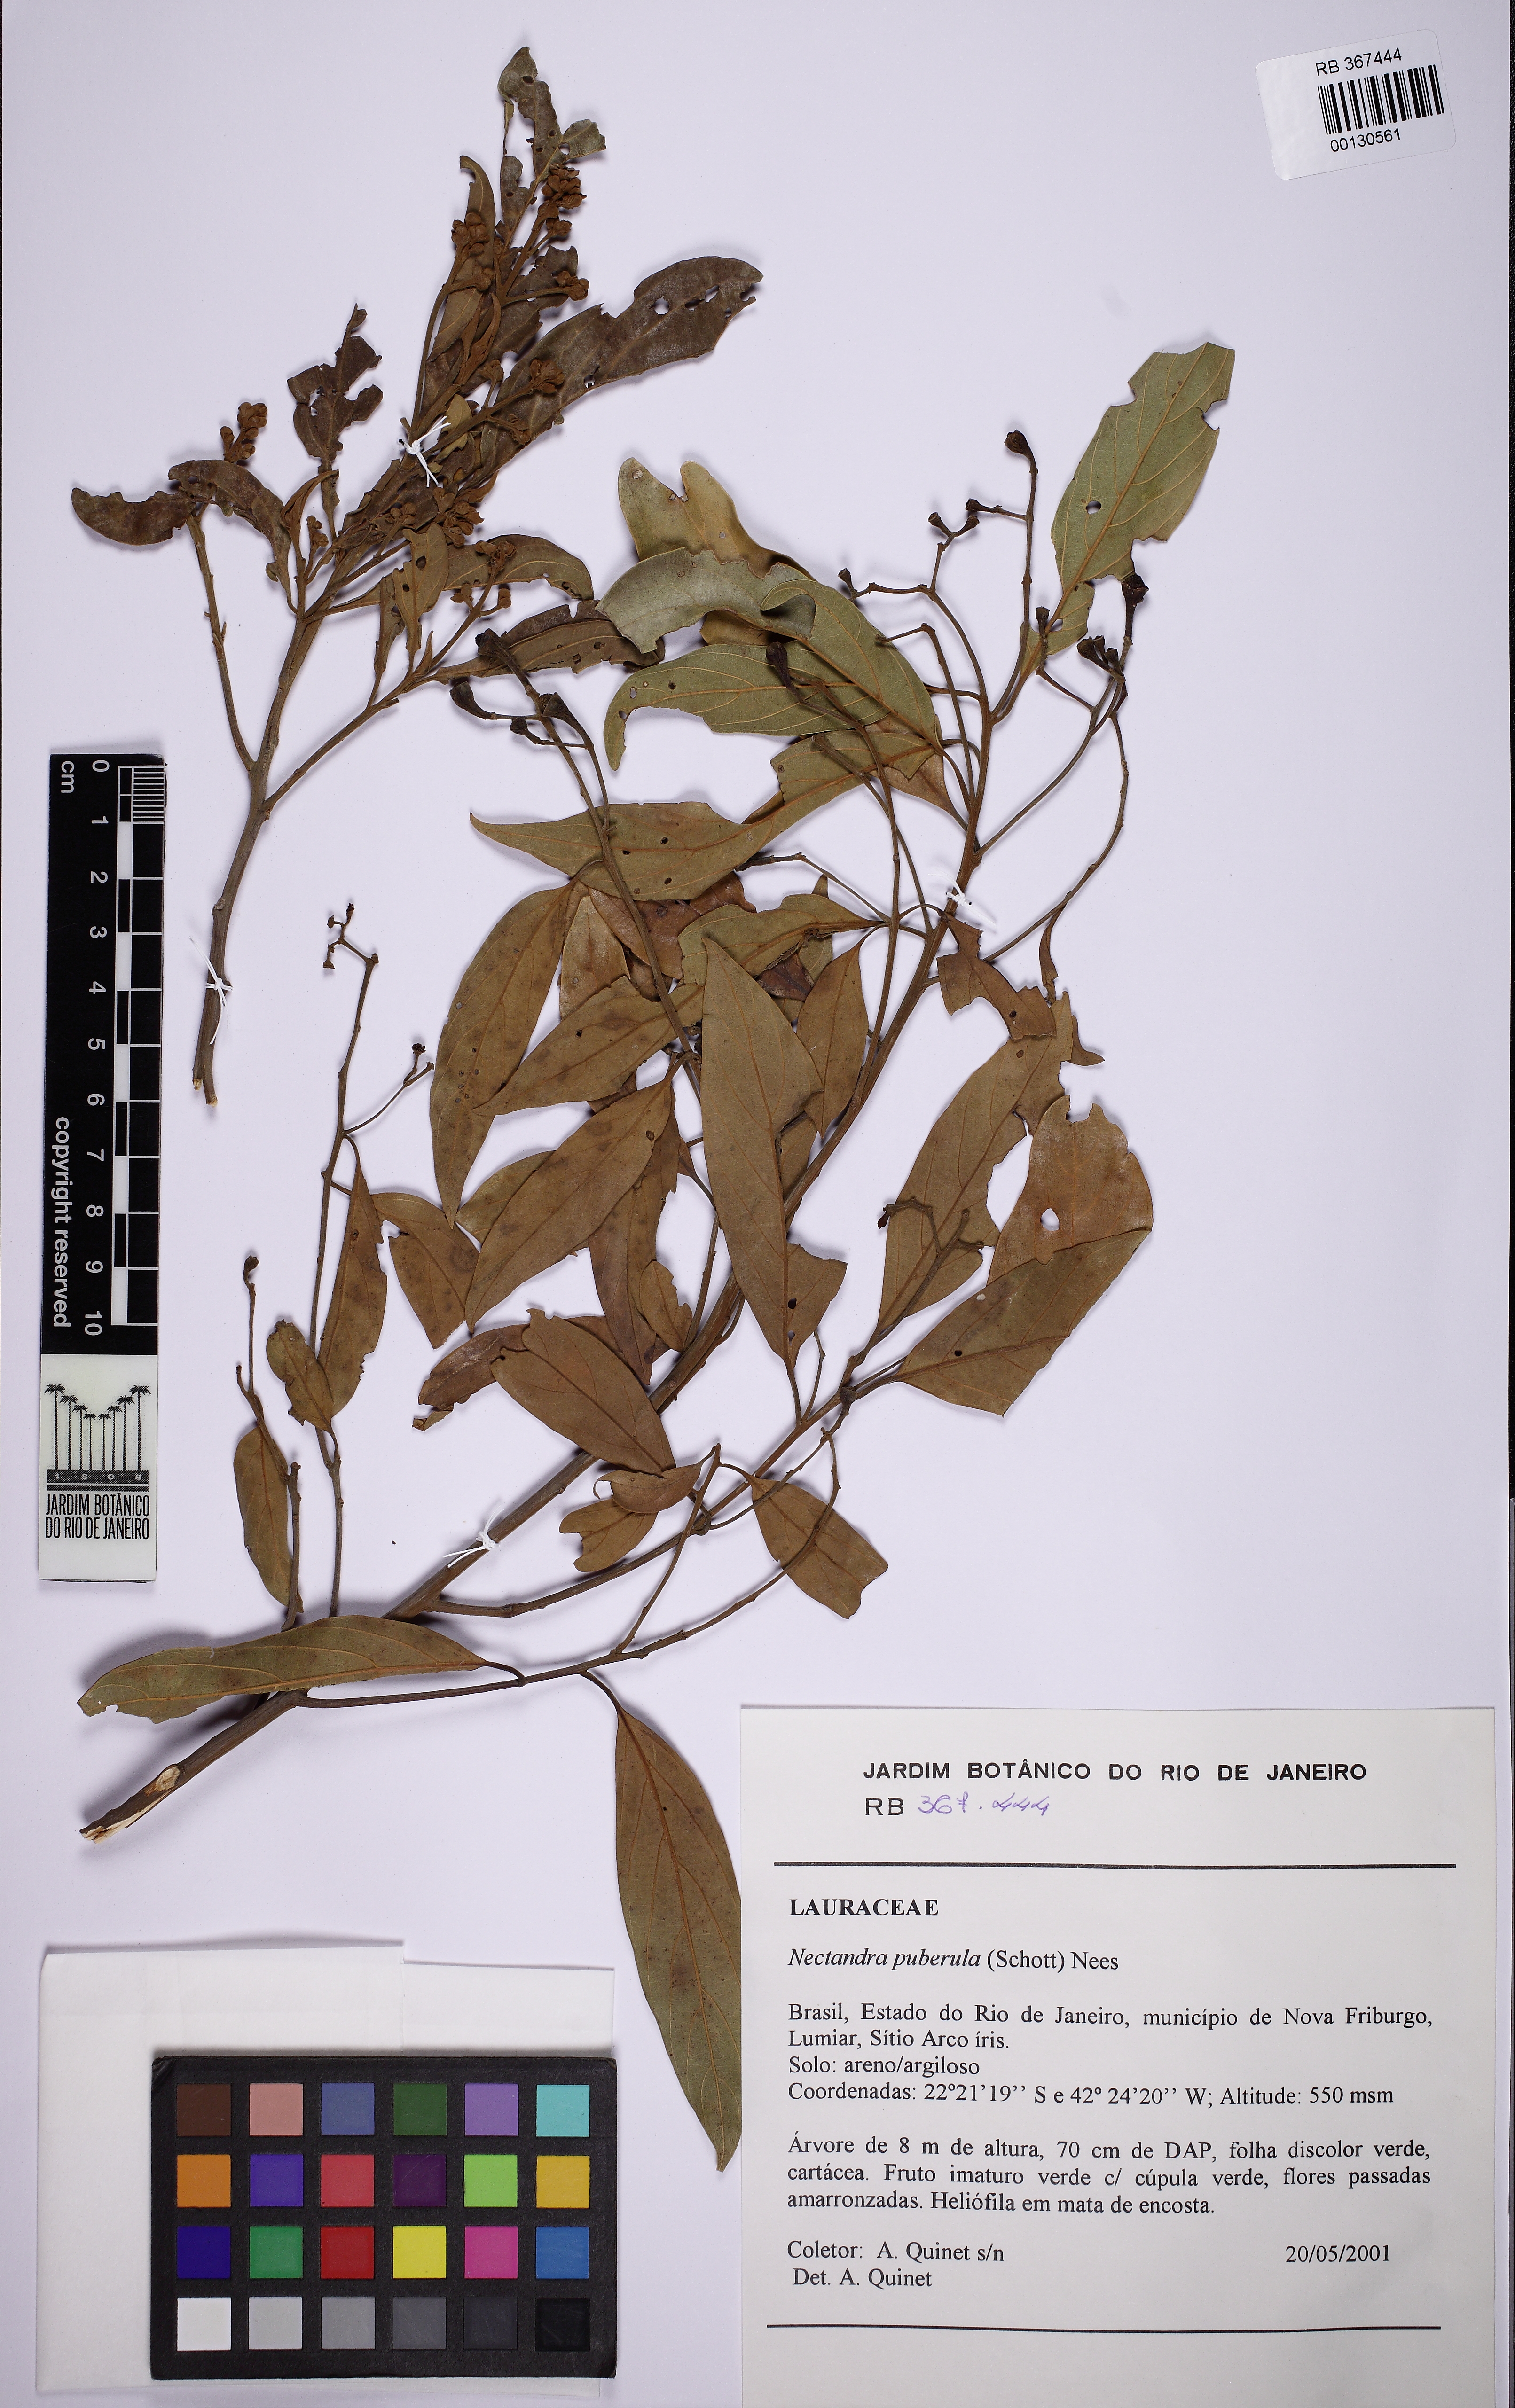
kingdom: Plantae
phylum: Tracheophyta
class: Magnoliopsida
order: Laurales
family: Lauraceae
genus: Nectandra
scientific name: Nectandra puberula
